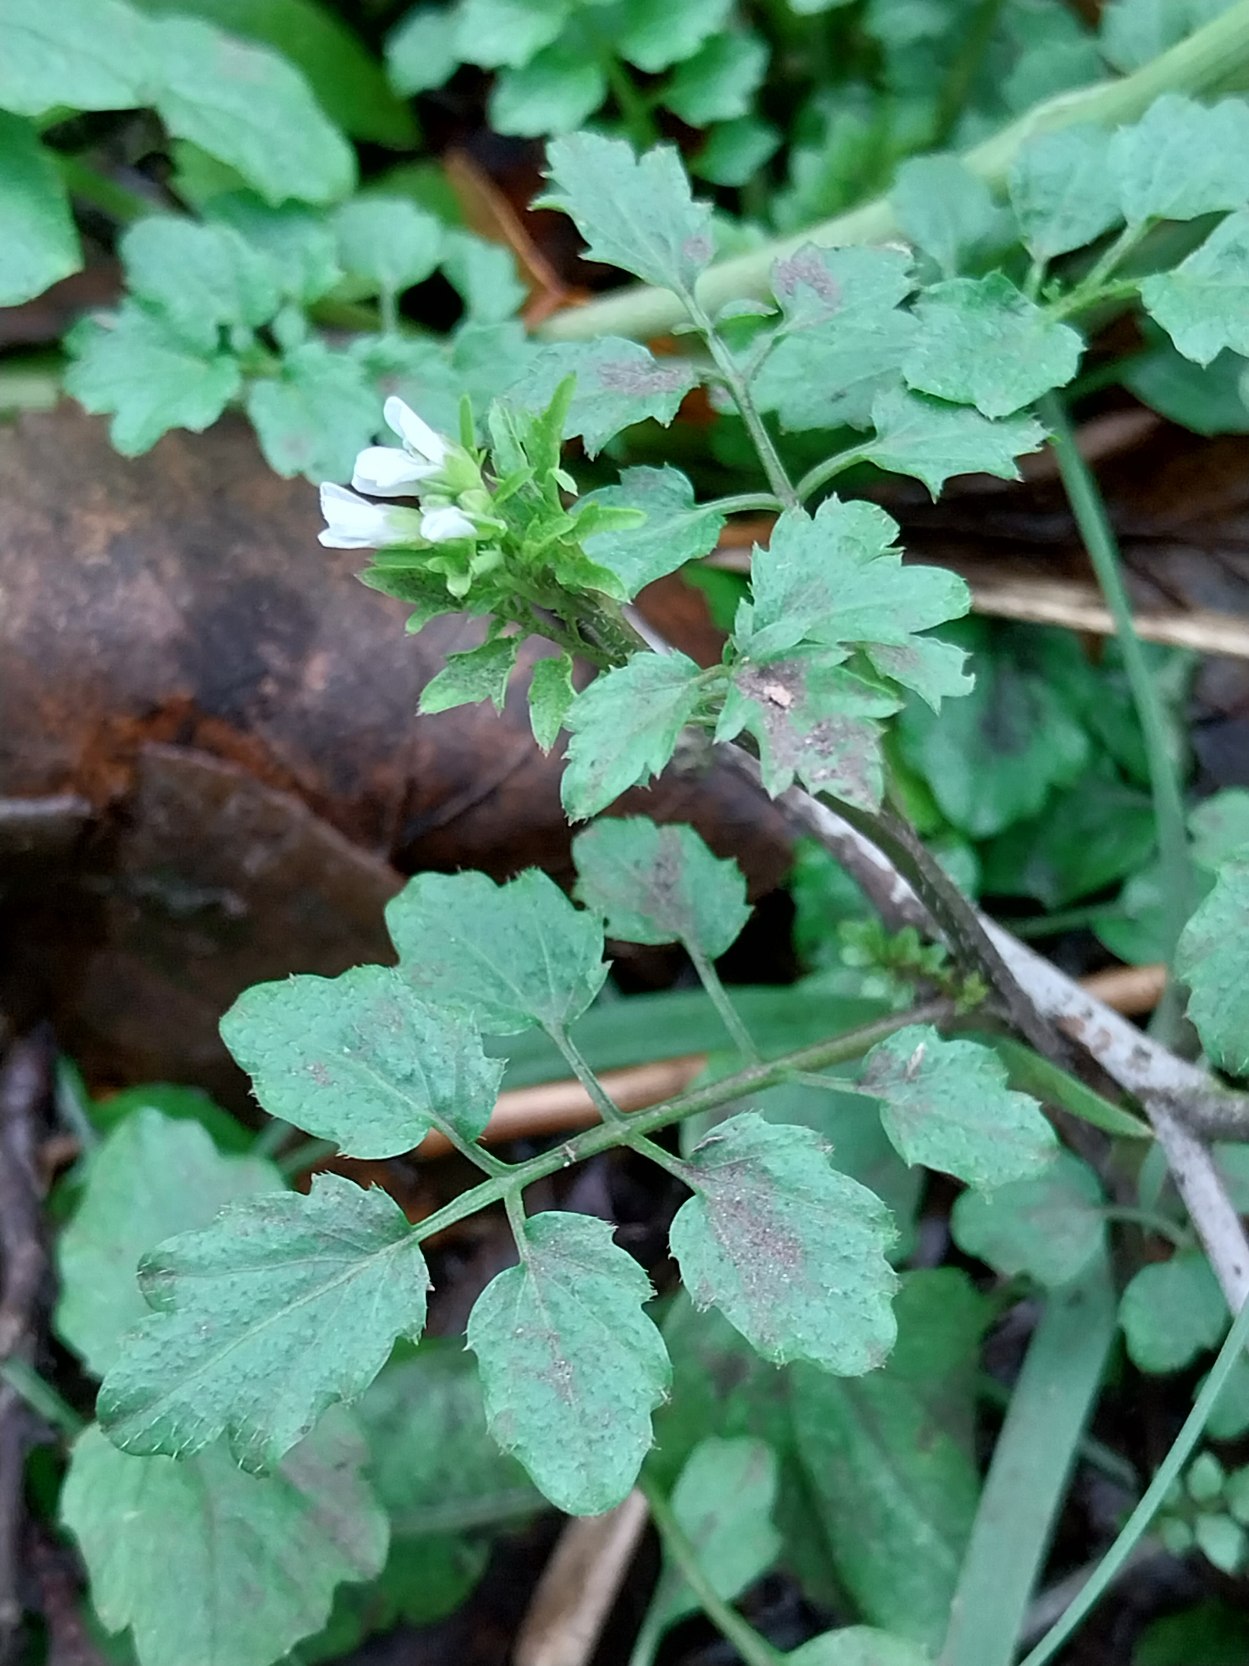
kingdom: Plantae
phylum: Tracheophyta
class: Magnoliopsida
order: Brassicales
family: Brassicaceae
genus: Cardamine
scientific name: Cardamine flexuosa
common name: Skov-springklap
